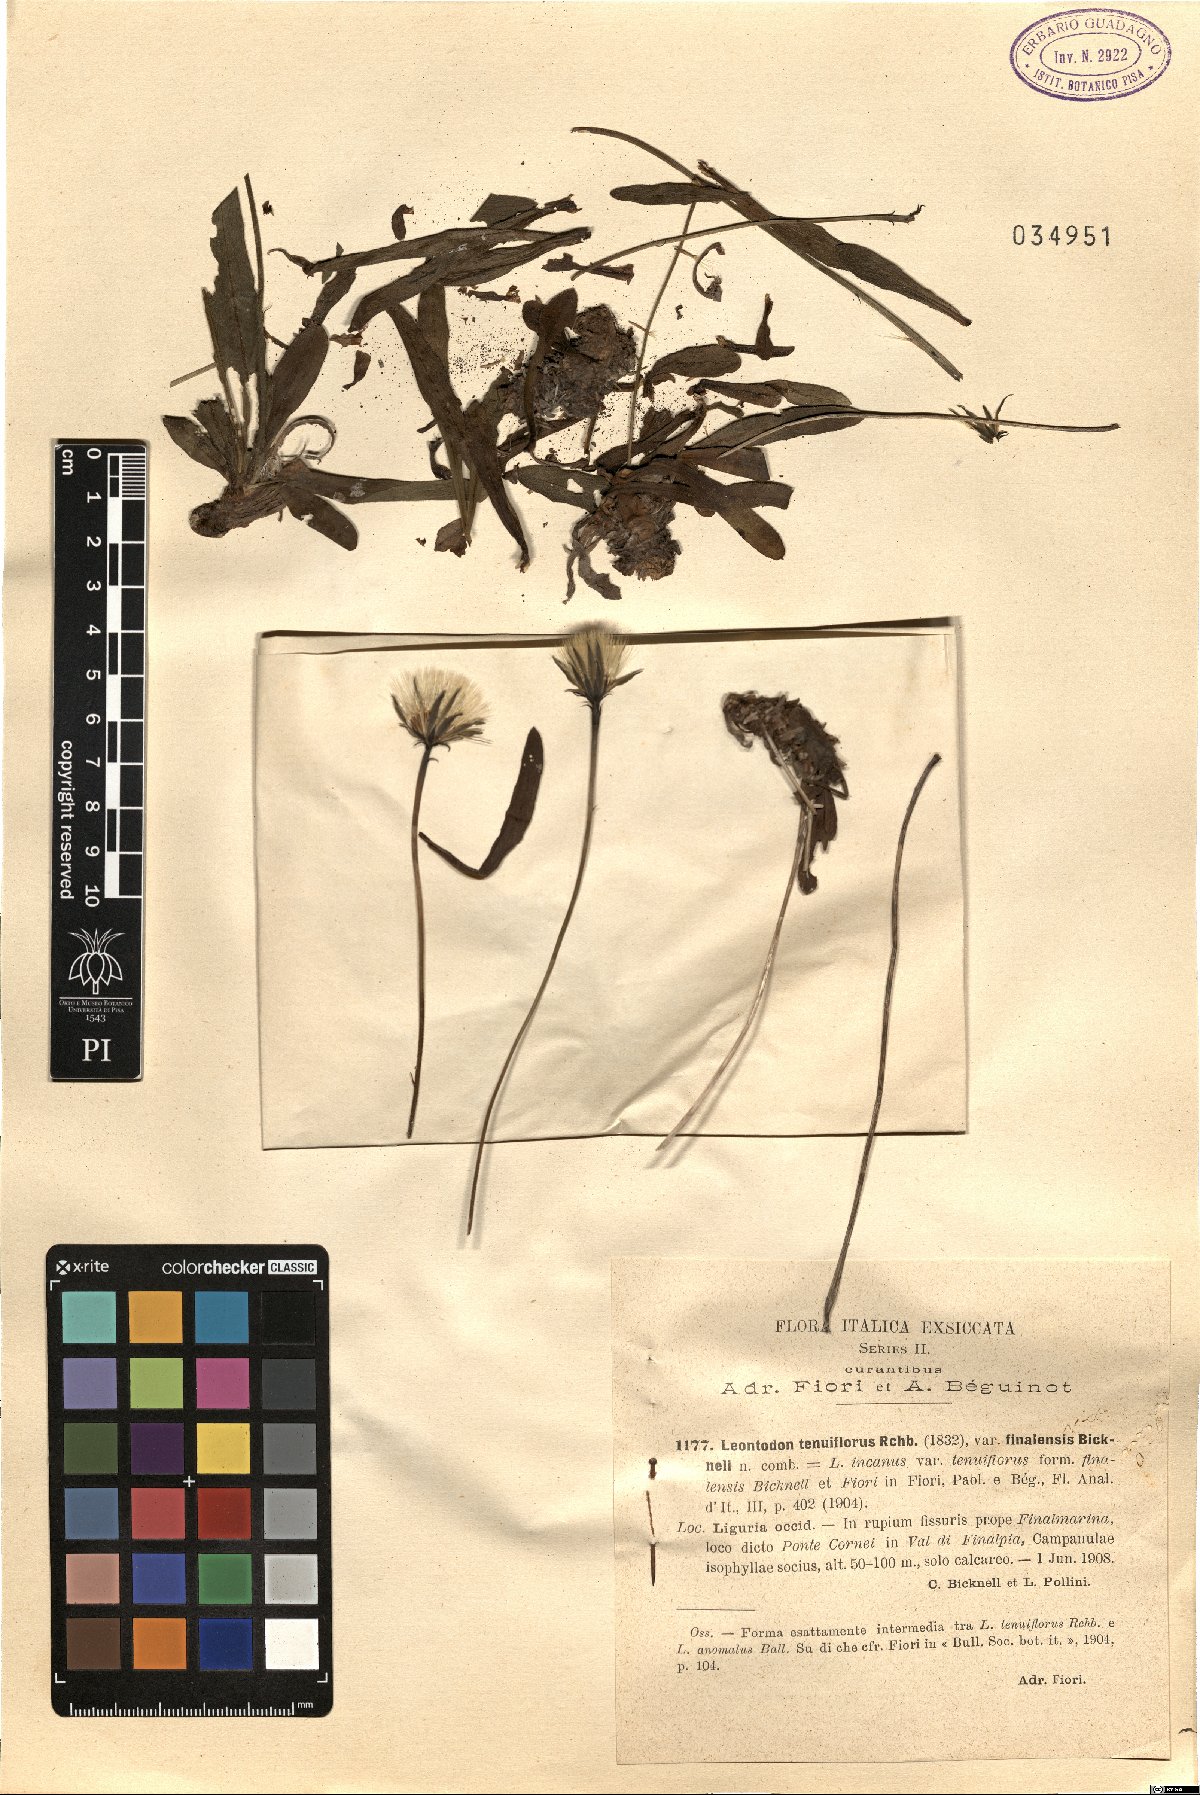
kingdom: Plantae
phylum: Tracheophyta
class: Magnoliopsida
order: Asterales
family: Asteraceae
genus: Leontodon
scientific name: Leontodon anomalus
